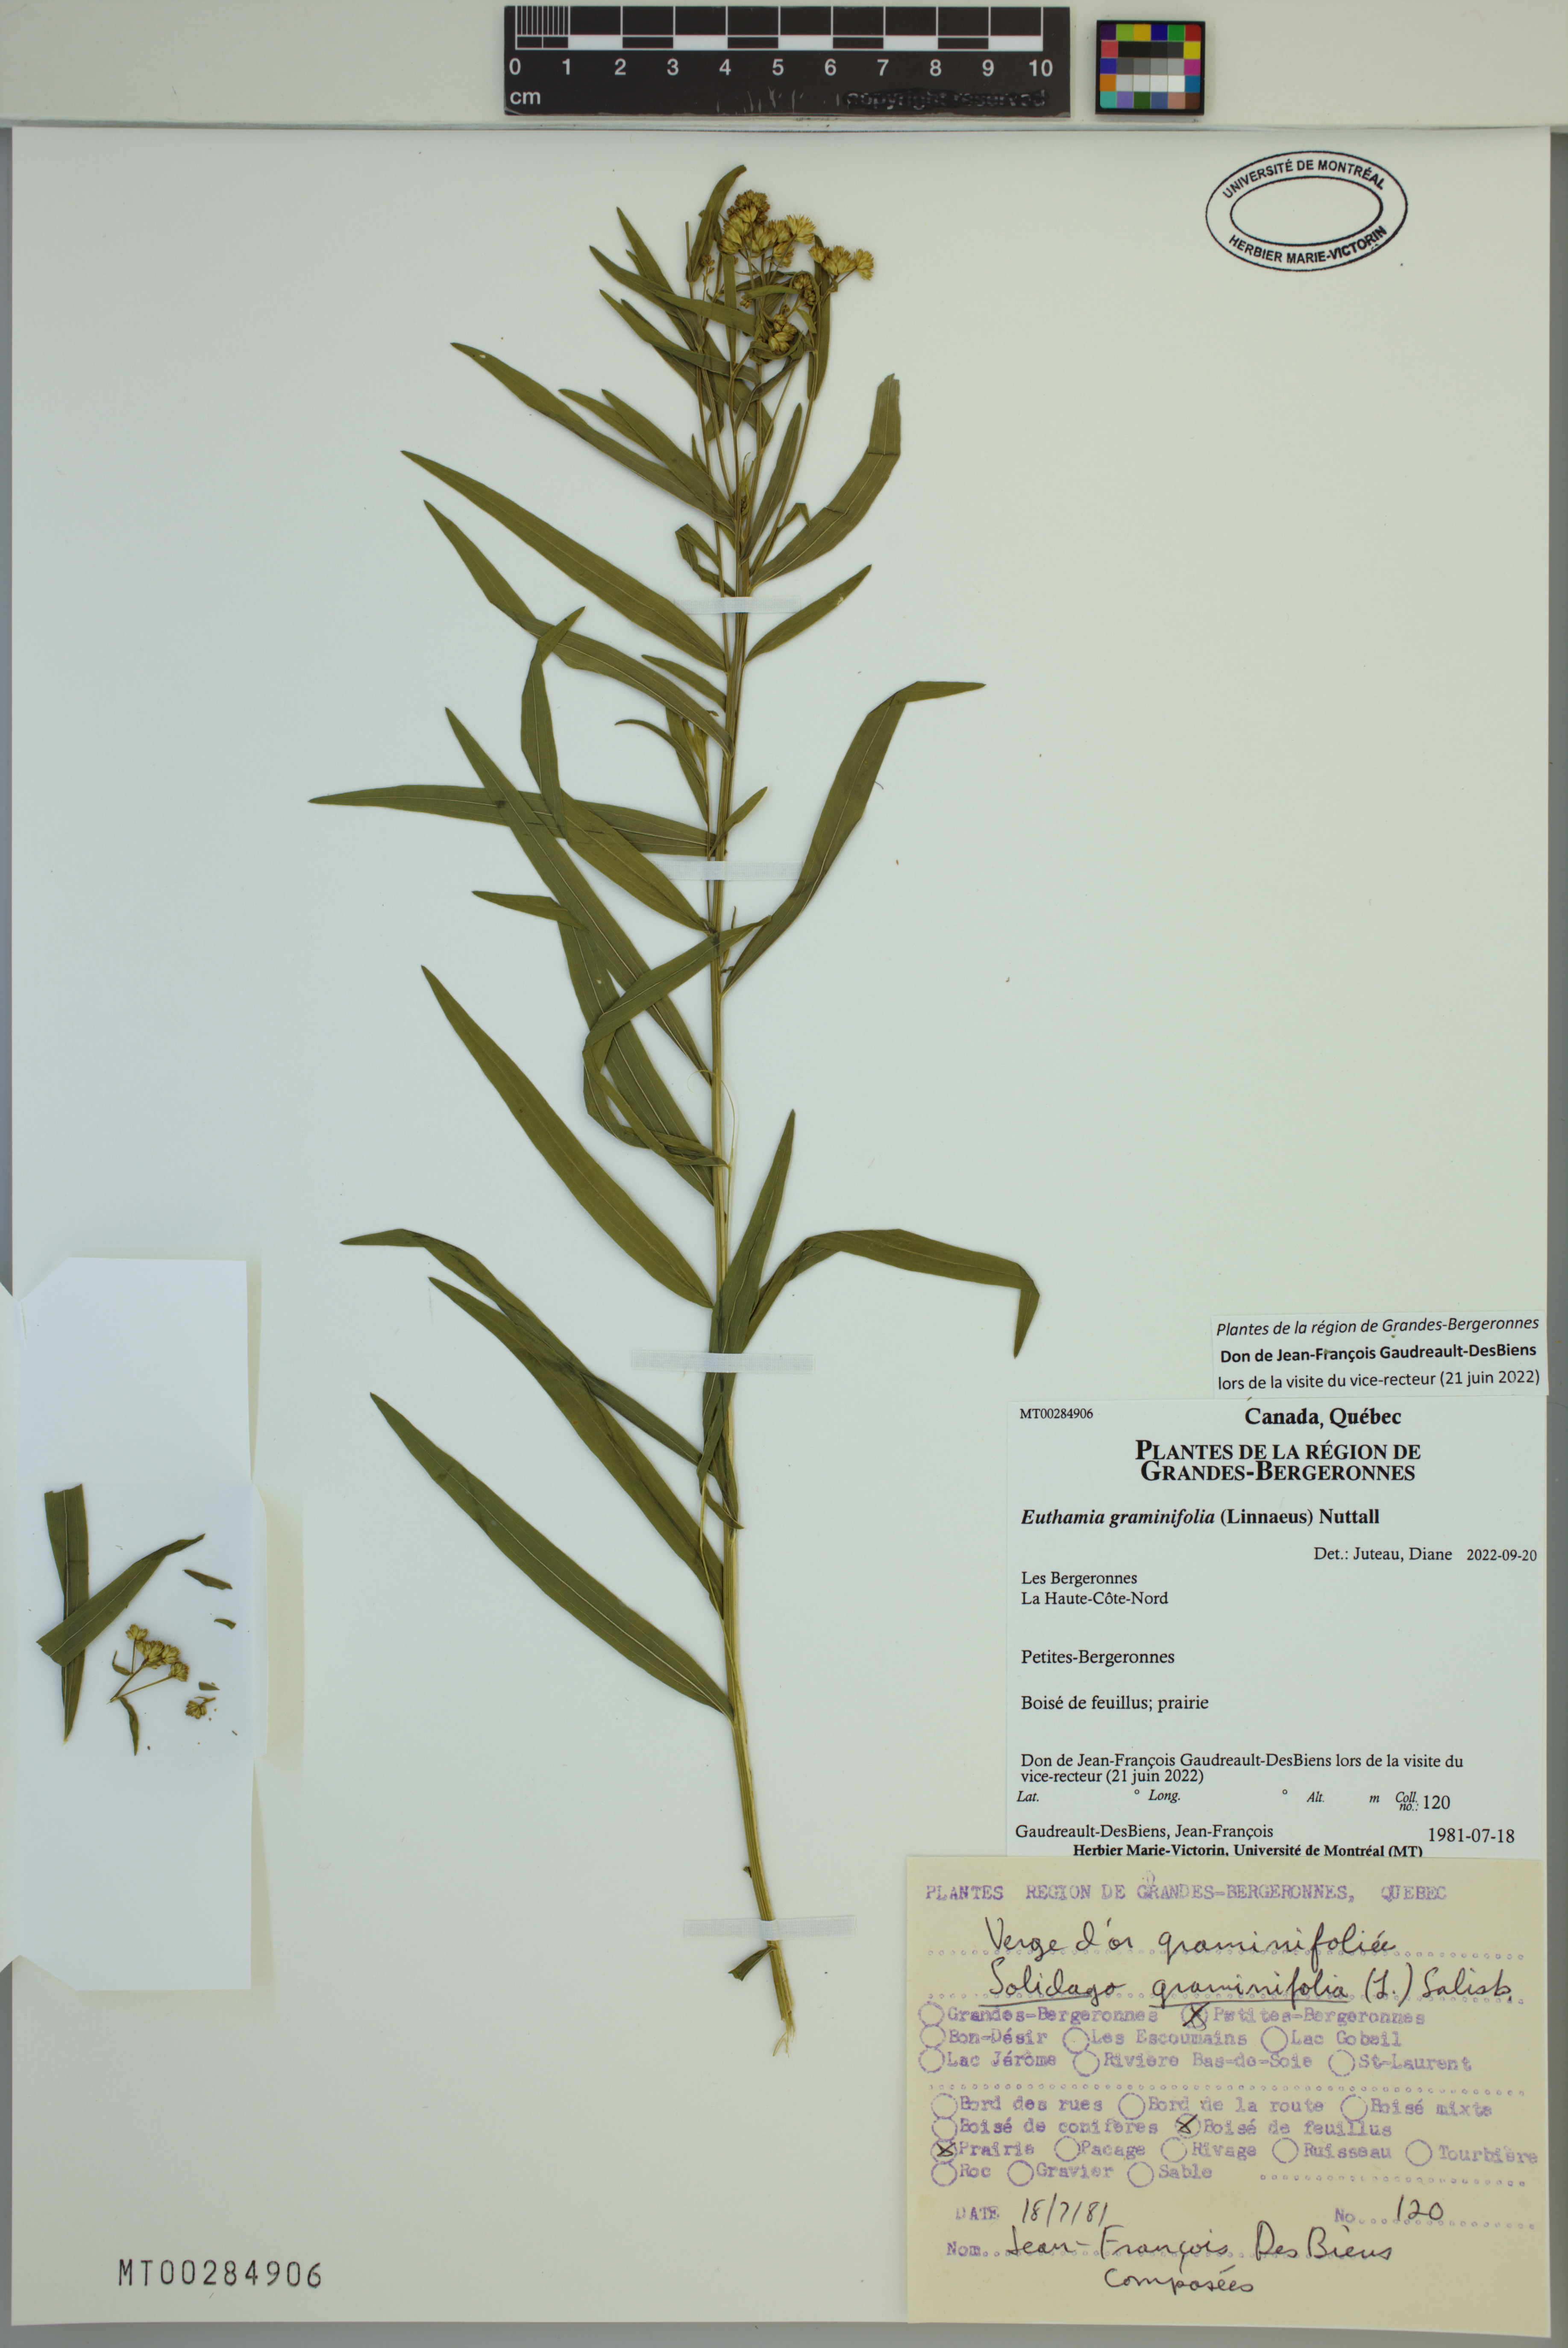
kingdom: Plantae
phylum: Tracheophyta
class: Magnoliopsida
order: Asterales
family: Asteraceae
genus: Euthamia
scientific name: Euthamia graminifolia
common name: Common goldentop
